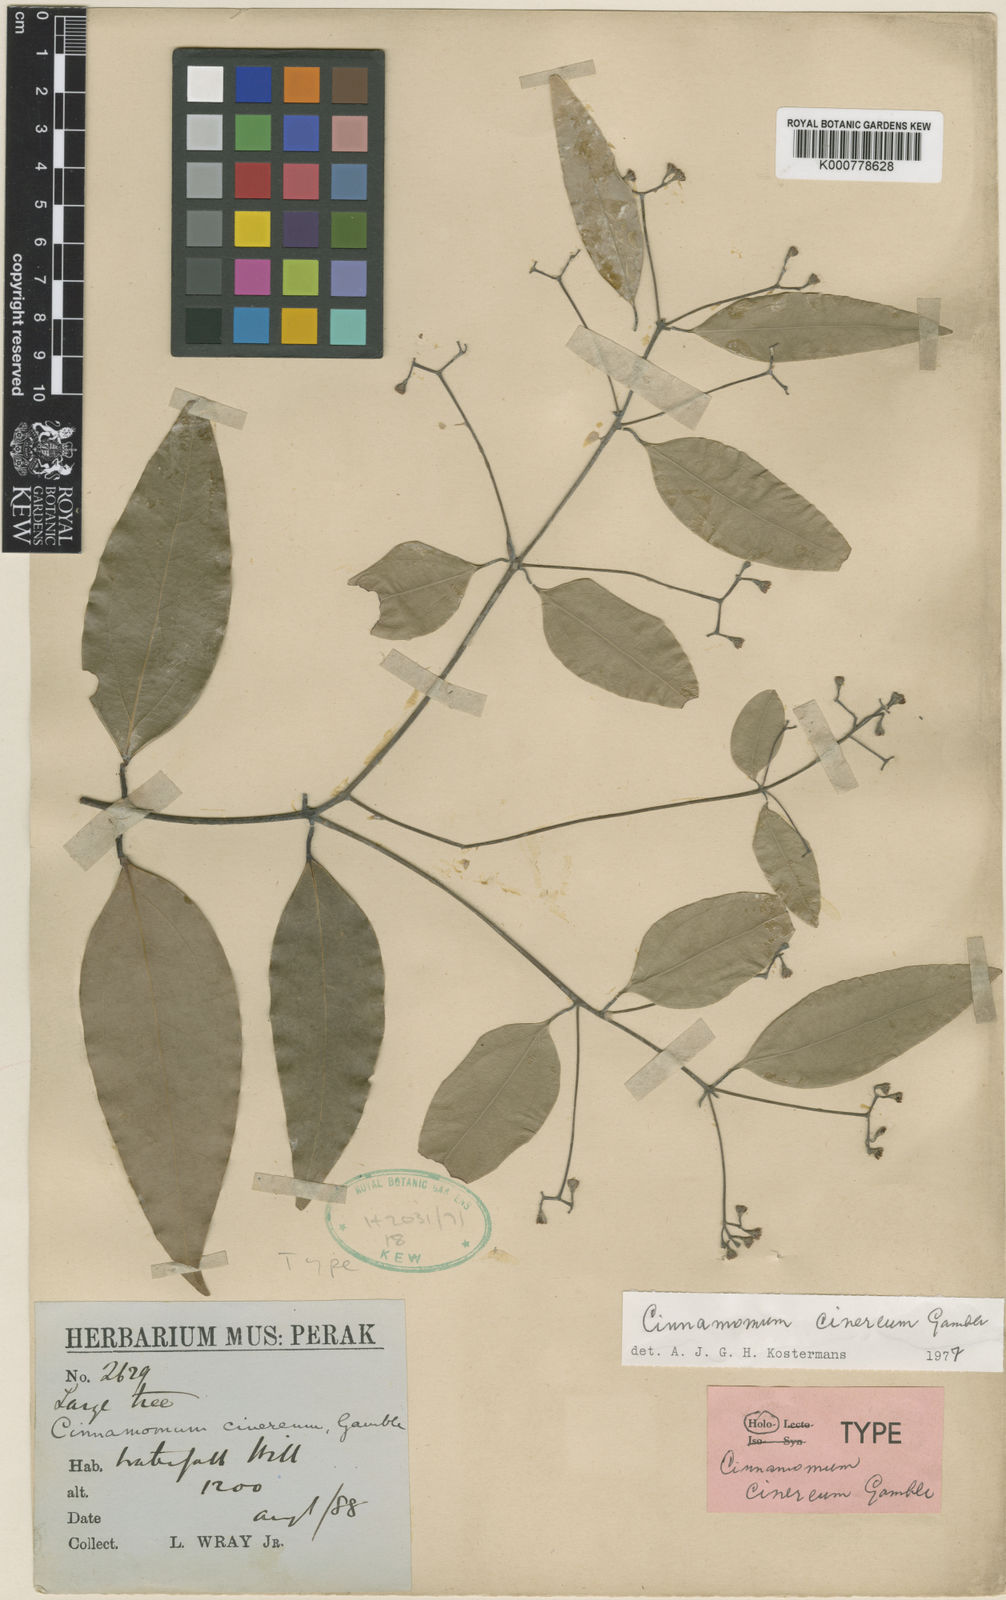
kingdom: Plantae
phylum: Tracheophyta
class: Magnoliopsida
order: Laurales
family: Lauraceae
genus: Cinnamomum
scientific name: Cinnamomum sintoc
